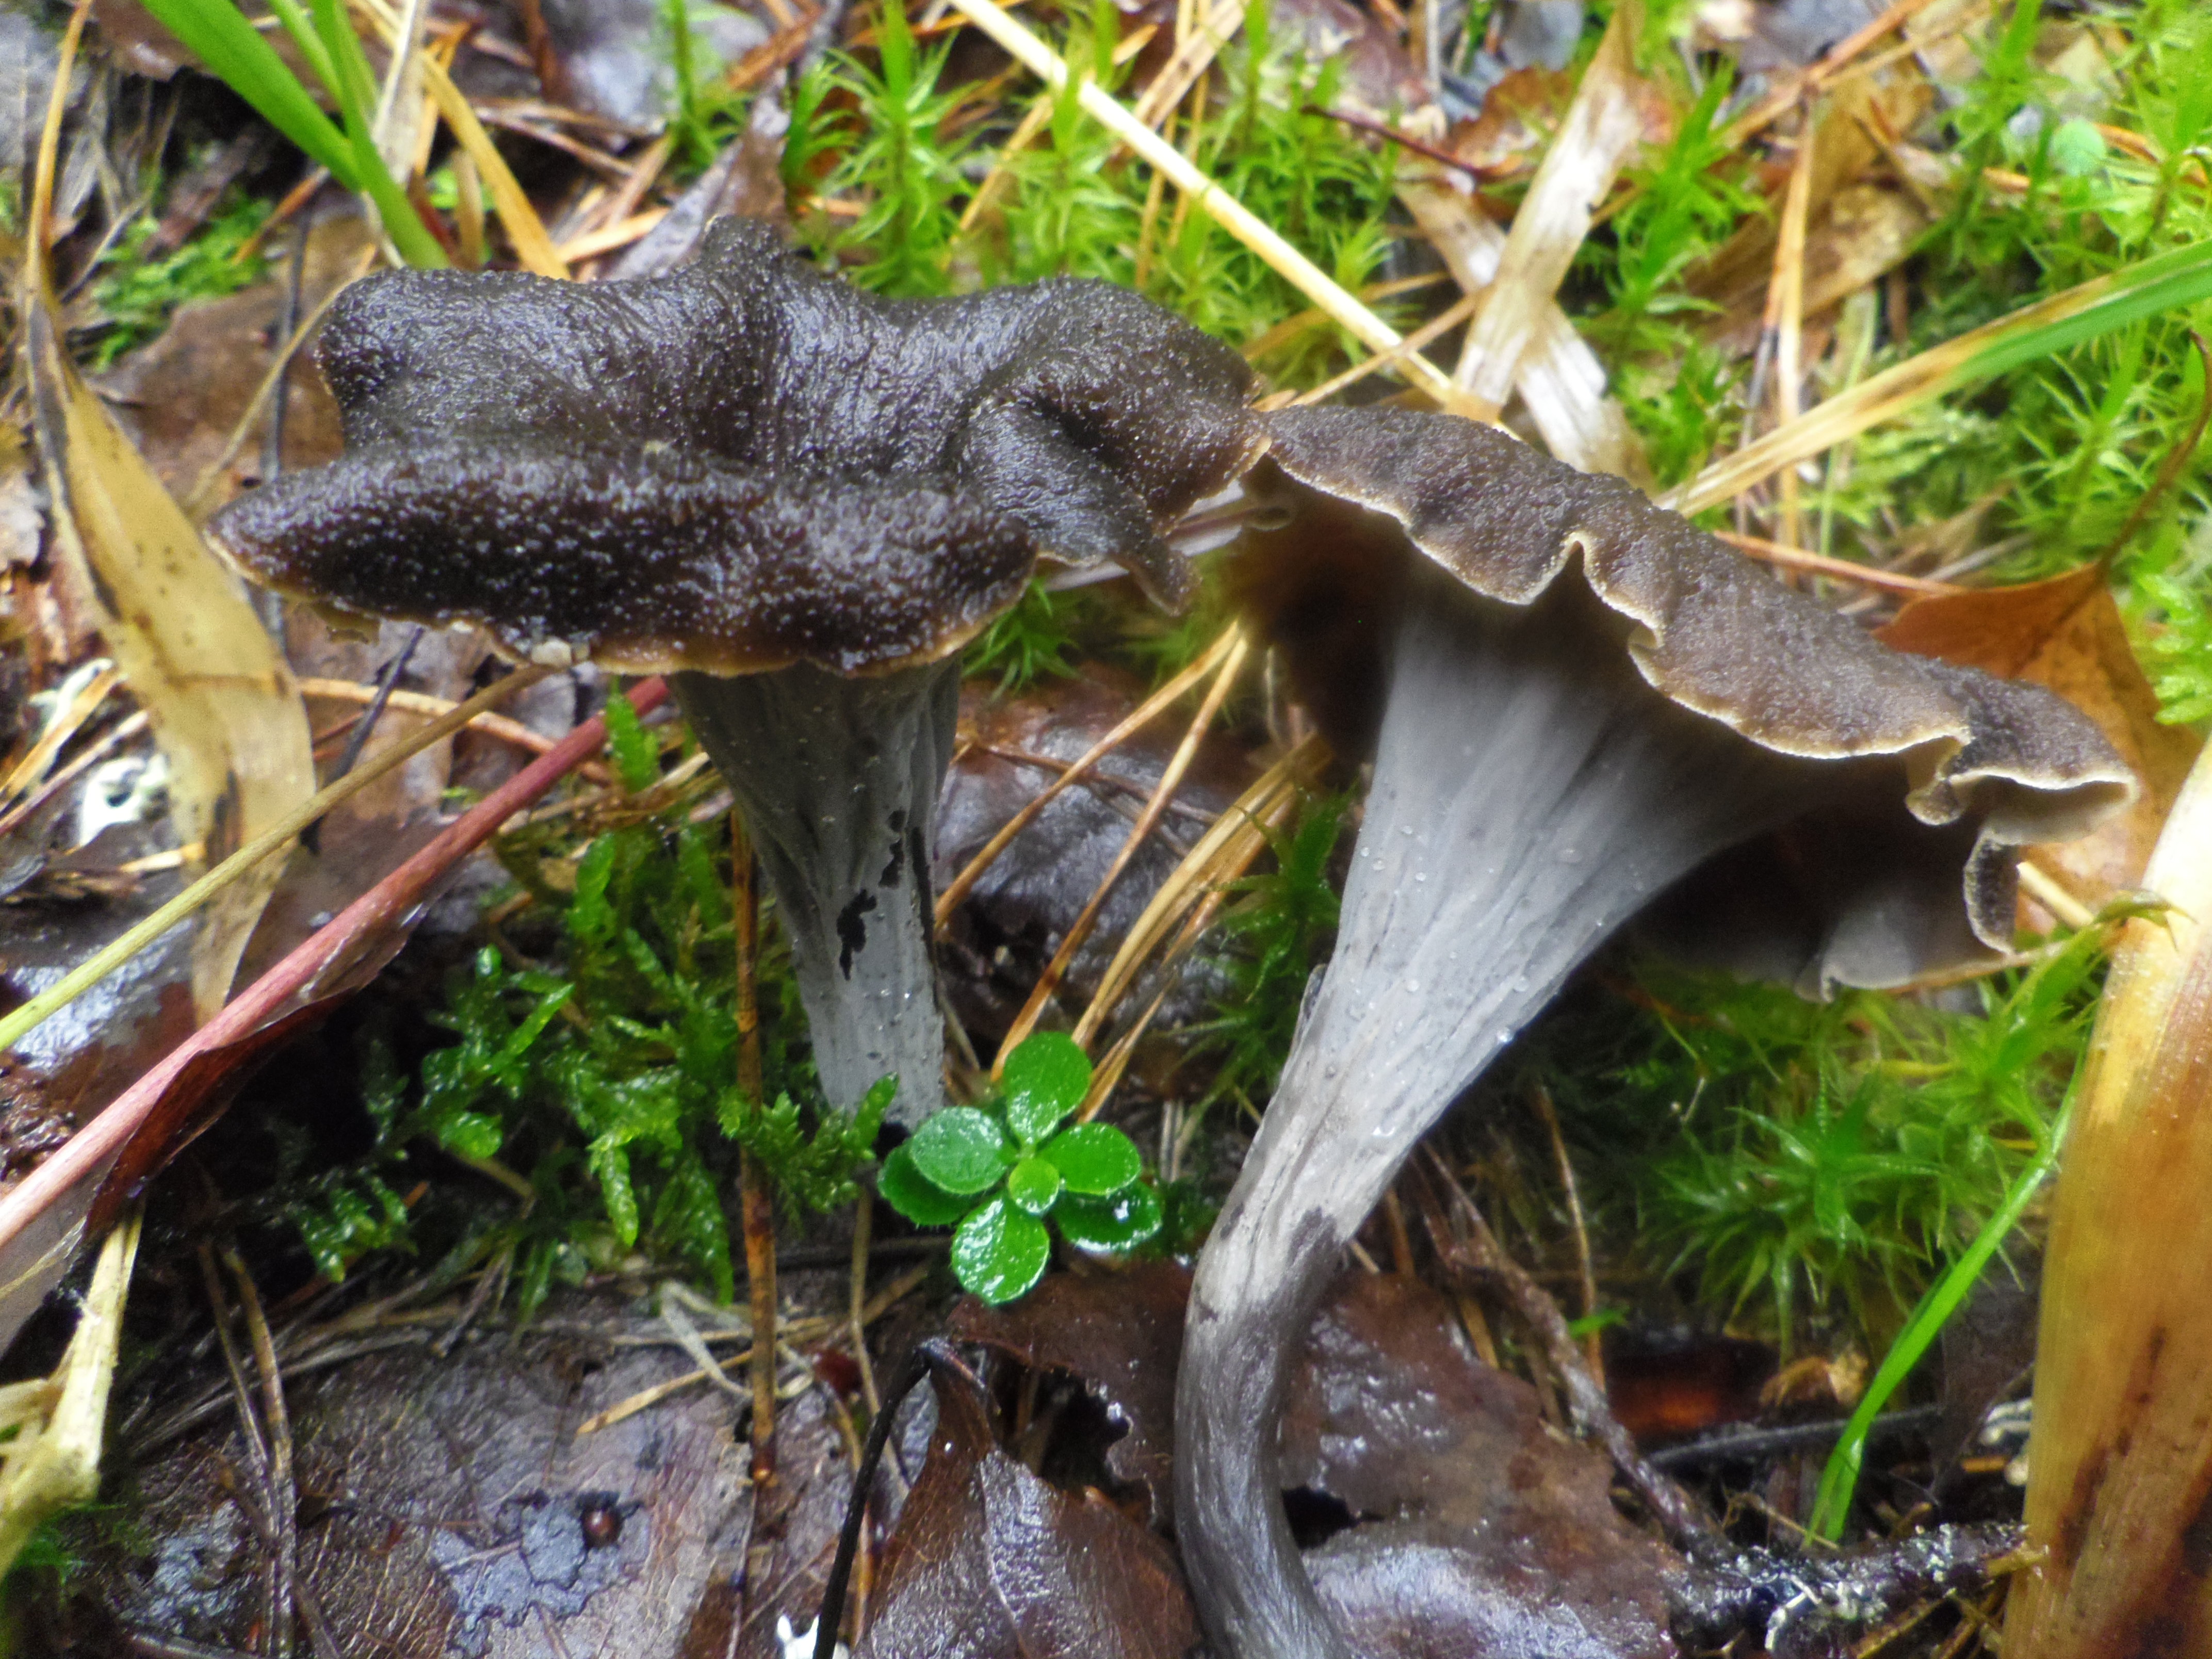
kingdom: Fungi
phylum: Basidiomycota
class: Agaricomycetes
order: Cantharellales
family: Hydnaceae
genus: Craterellus
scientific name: Craterellus cornucopioides
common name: Horn of plenty
